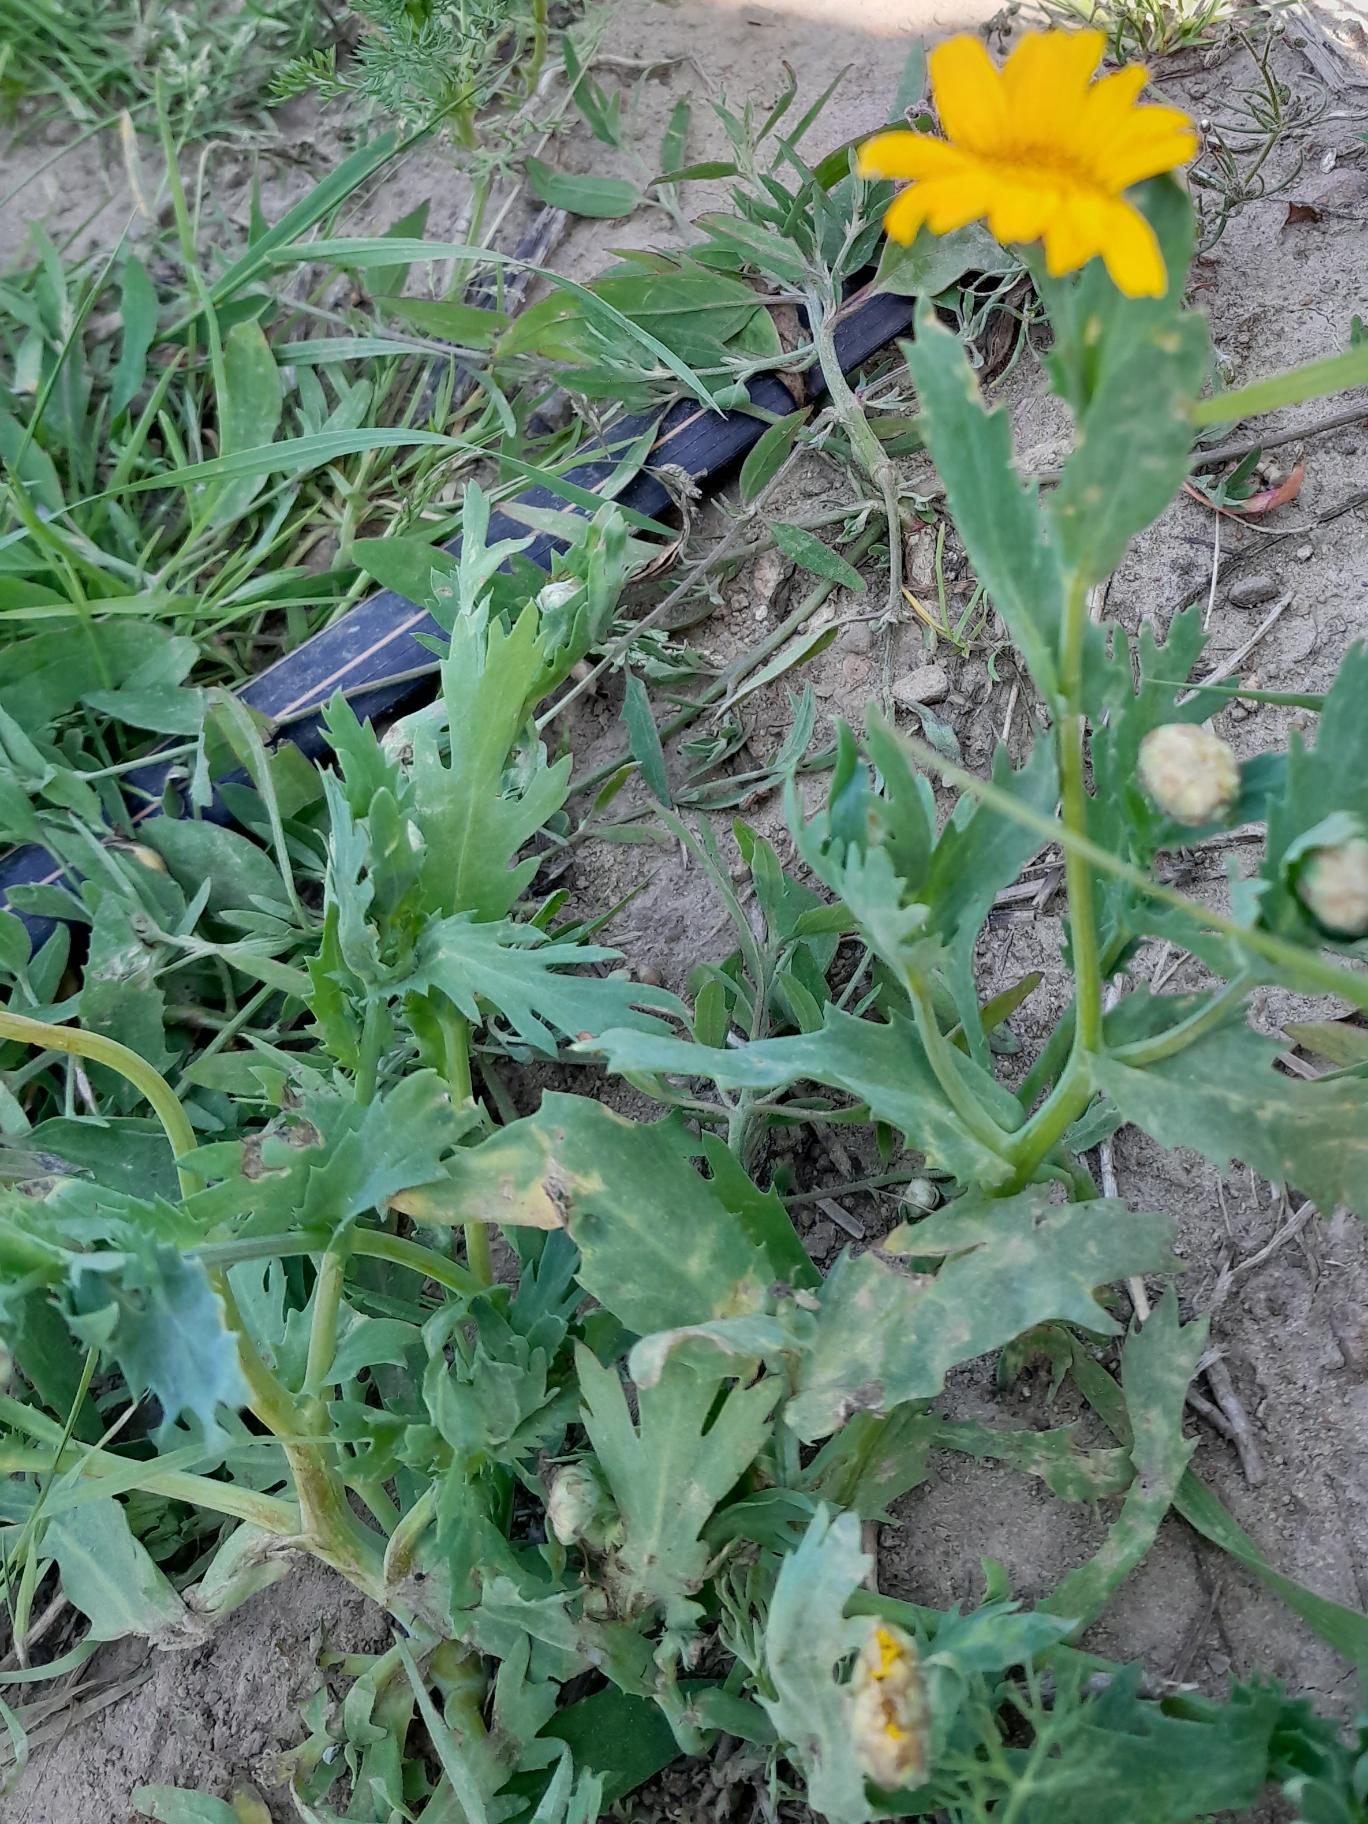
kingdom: Plantae
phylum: Tracheophyta
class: Magnoliopsida
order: Asterales
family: Asteraceae
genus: Glebionis
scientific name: Glebionis segetum
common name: Gul okseøje
